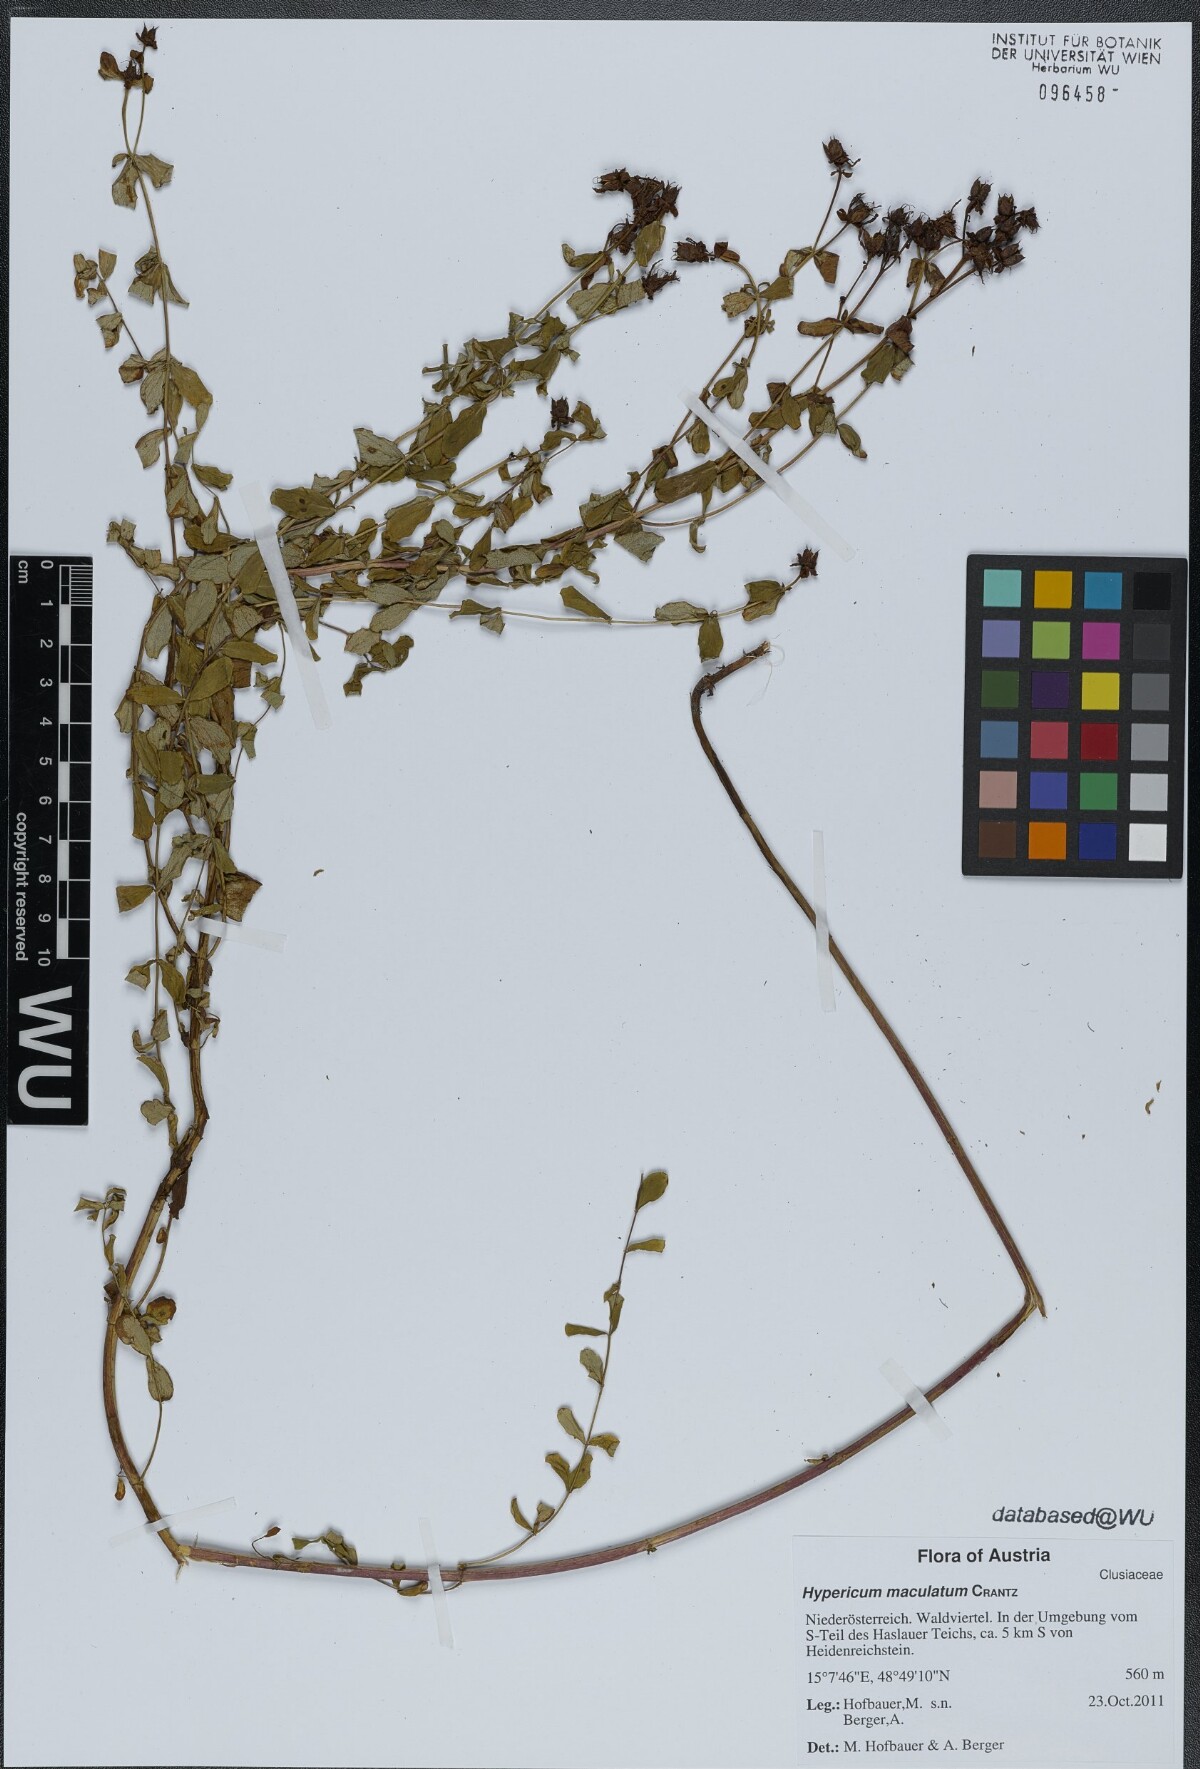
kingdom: Plantae
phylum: Tracheophyta
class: Magnoliopsida
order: Malpighiales
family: Hypericaceae
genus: Hypericum
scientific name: Hypericum maculatum
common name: Imperforate st. john's-wort
